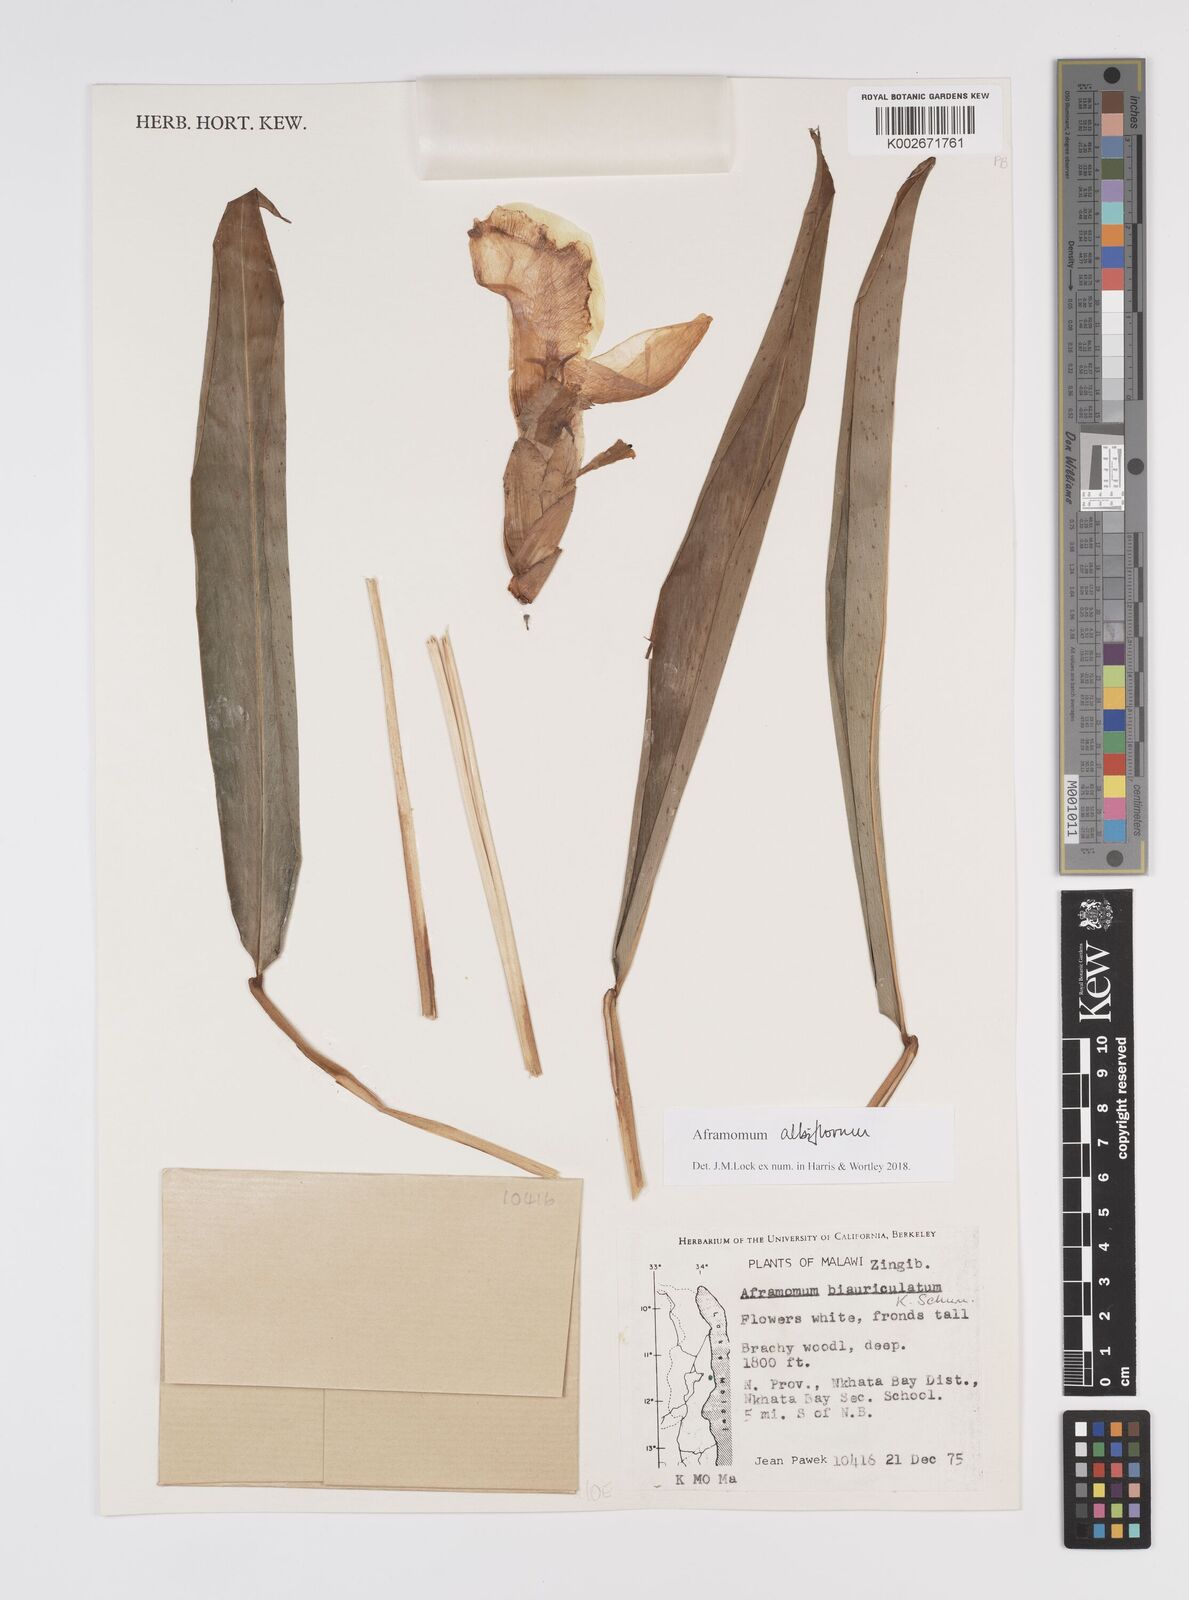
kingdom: Plantae
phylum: Tracheophyta
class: Liliopsida
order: Zingiberales
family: Zingiberaceae
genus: Aframomum
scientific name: Aframomum albiflorum
